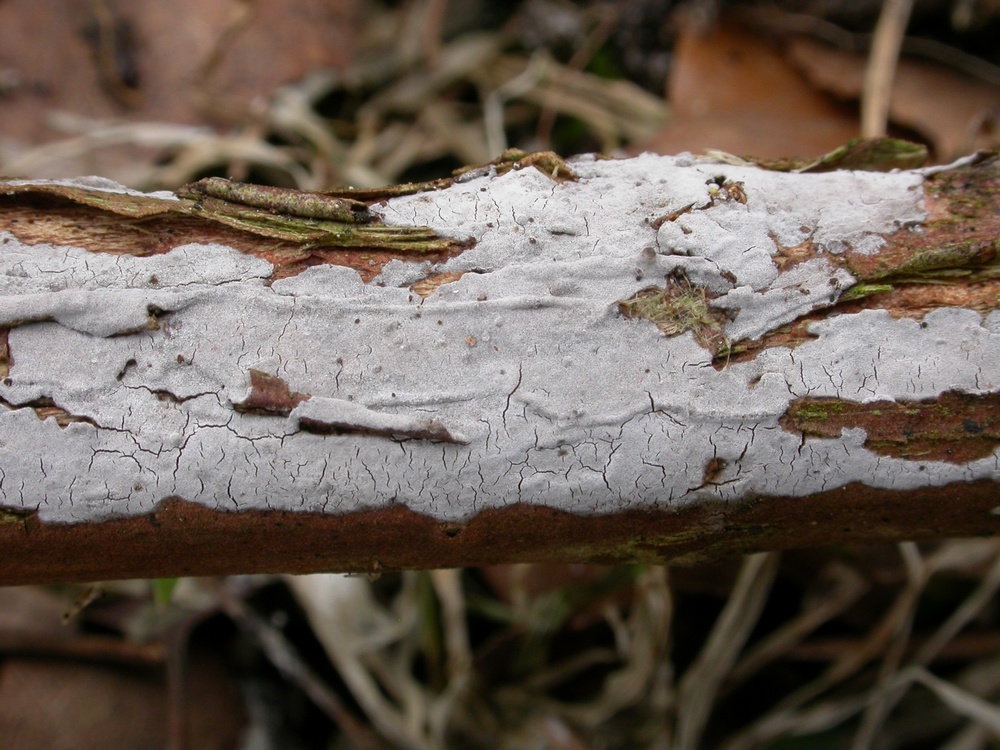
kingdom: Fungi
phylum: Basidiomycota
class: Agaricomycetes
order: Russulales
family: Peniophoraceae
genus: Peniophora
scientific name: Peniophora lycii
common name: grynet voksskind
